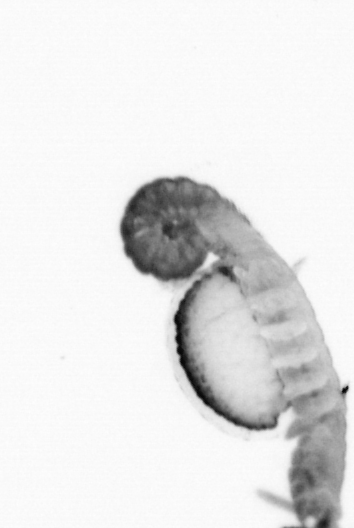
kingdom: Animalia
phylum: Annelida
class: Polychaeta
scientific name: Polychaeta
